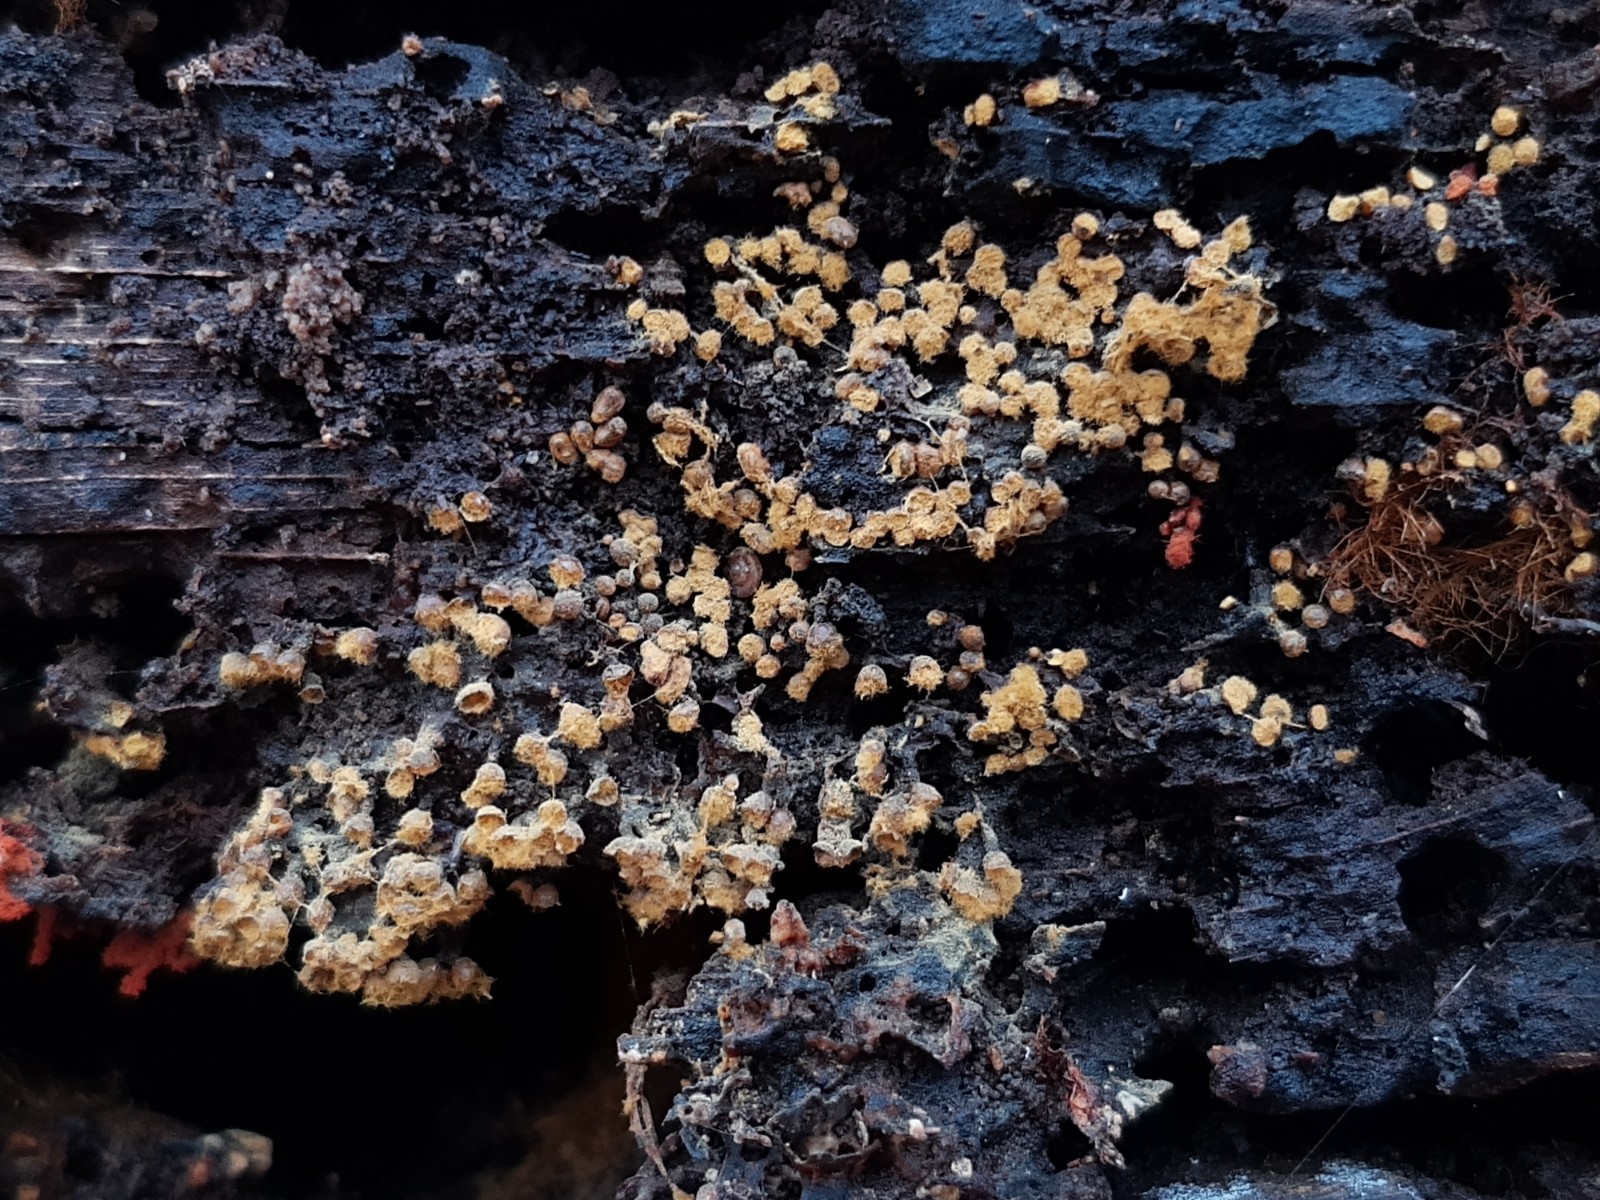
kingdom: Protozoa
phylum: Mycetozoa
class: Myxomycetes
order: Trichiales
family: Trichiaceae
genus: Trichia
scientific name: Trichia varia
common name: foranderlig hårbold
